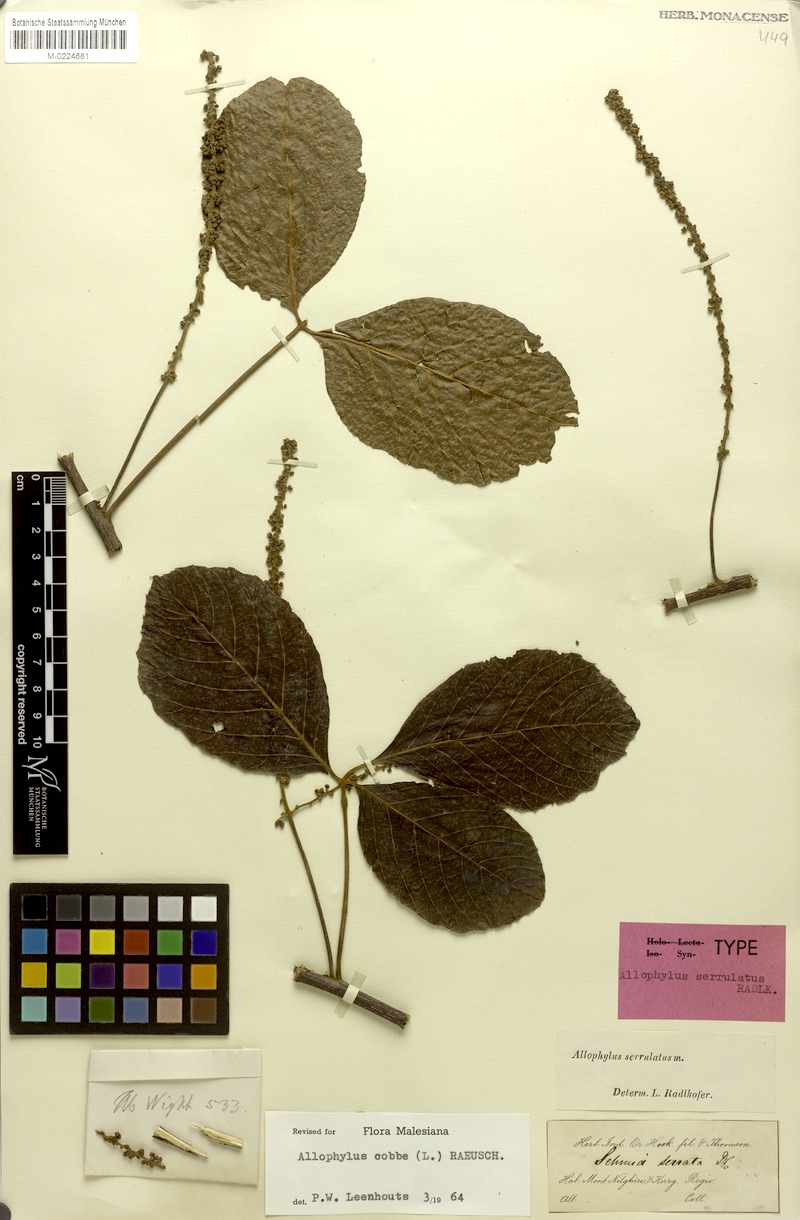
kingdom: Plantae
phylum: Tracheophyta
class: Magnoliopsida
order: Sapindales
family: Sapindaceae
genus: Allophylus
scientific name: Allophylus cobbe
